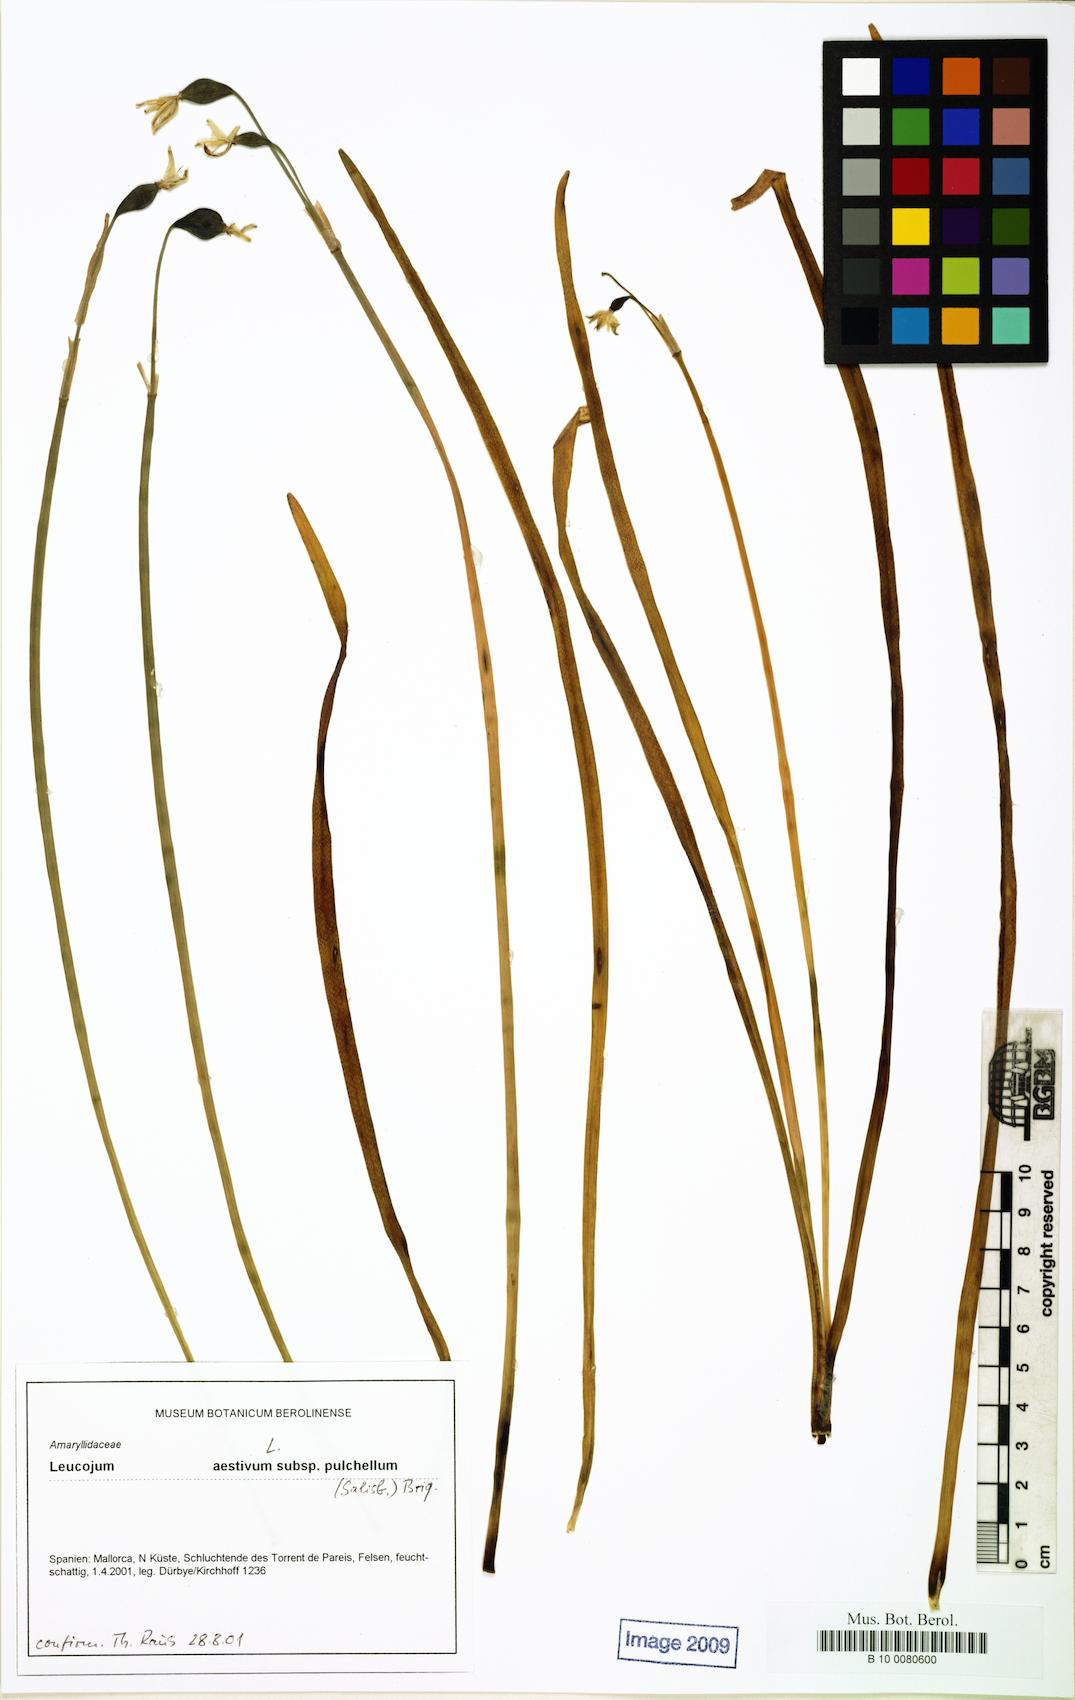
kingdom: Plantae
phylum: Tracheophyta
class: Liliopsida
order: Asparagales
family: Amaryllidaceae
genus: Leucojum
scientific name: Leucojum aestivum
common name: Summer snowflake
